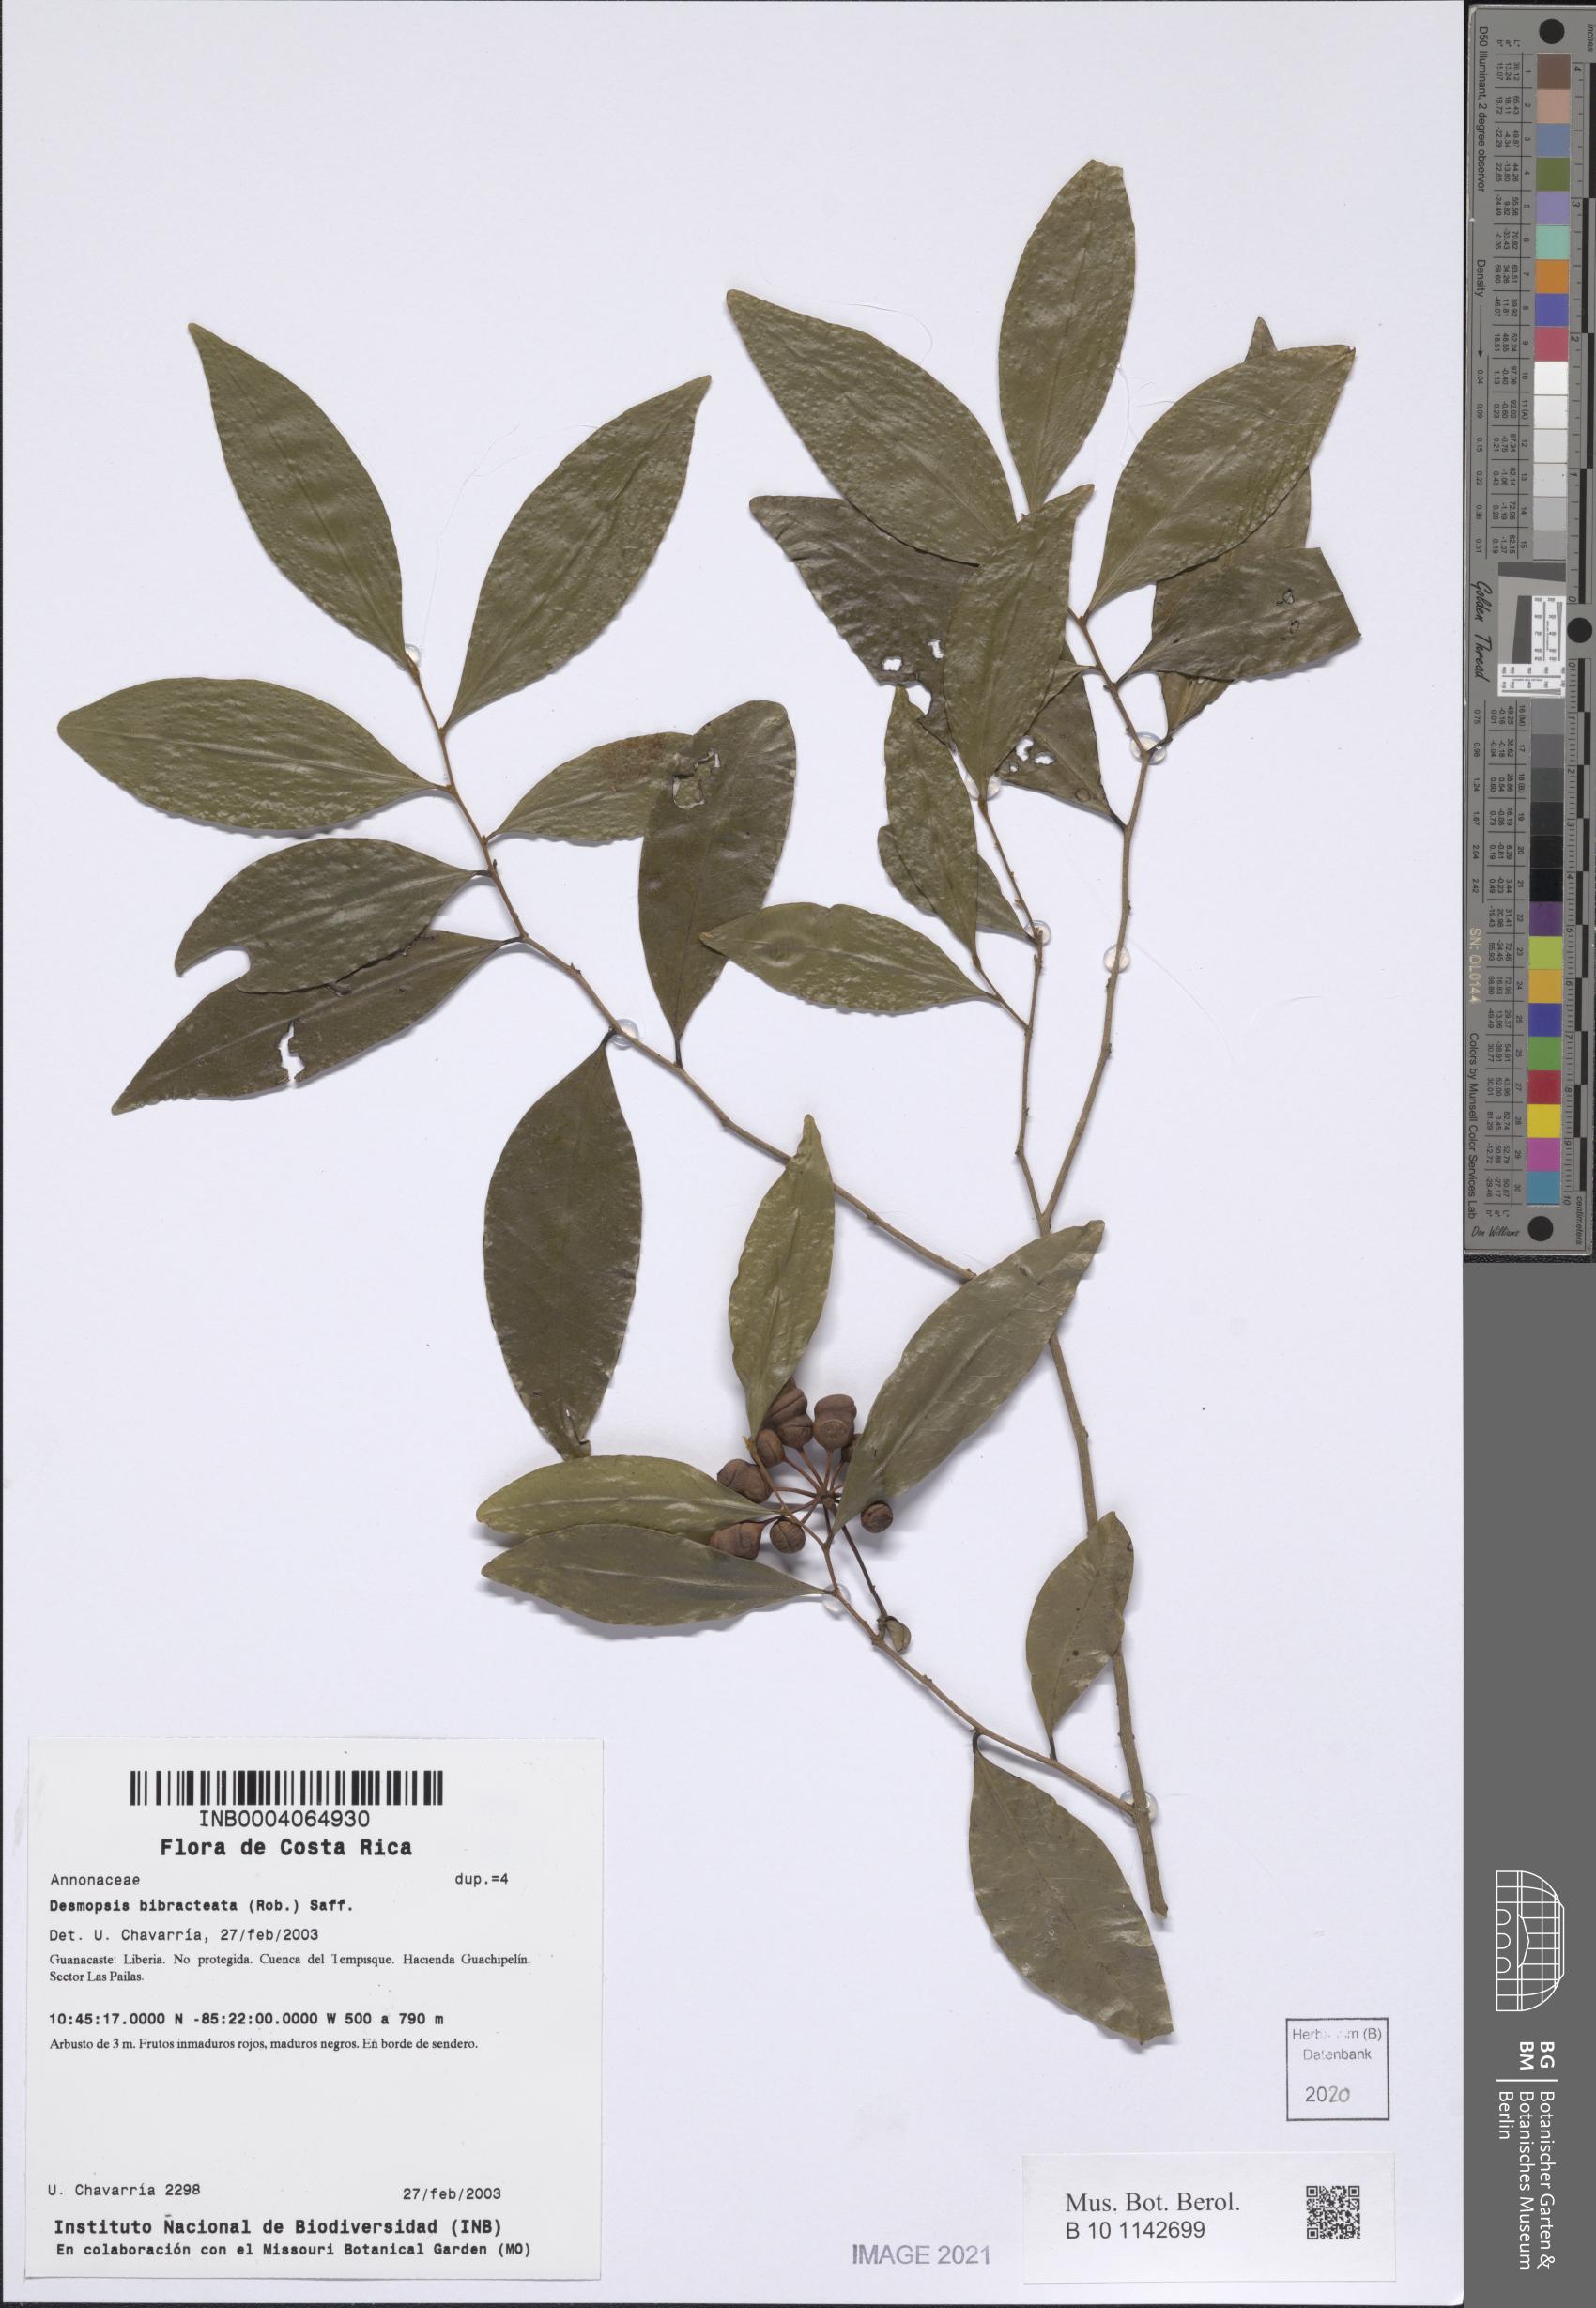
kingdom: Plantae
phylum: Tracheophyta
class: Magnoliopsida
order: Magnoliales
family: Annonaceae
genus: Desmopsis
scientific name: Desmopsis bibracteata
